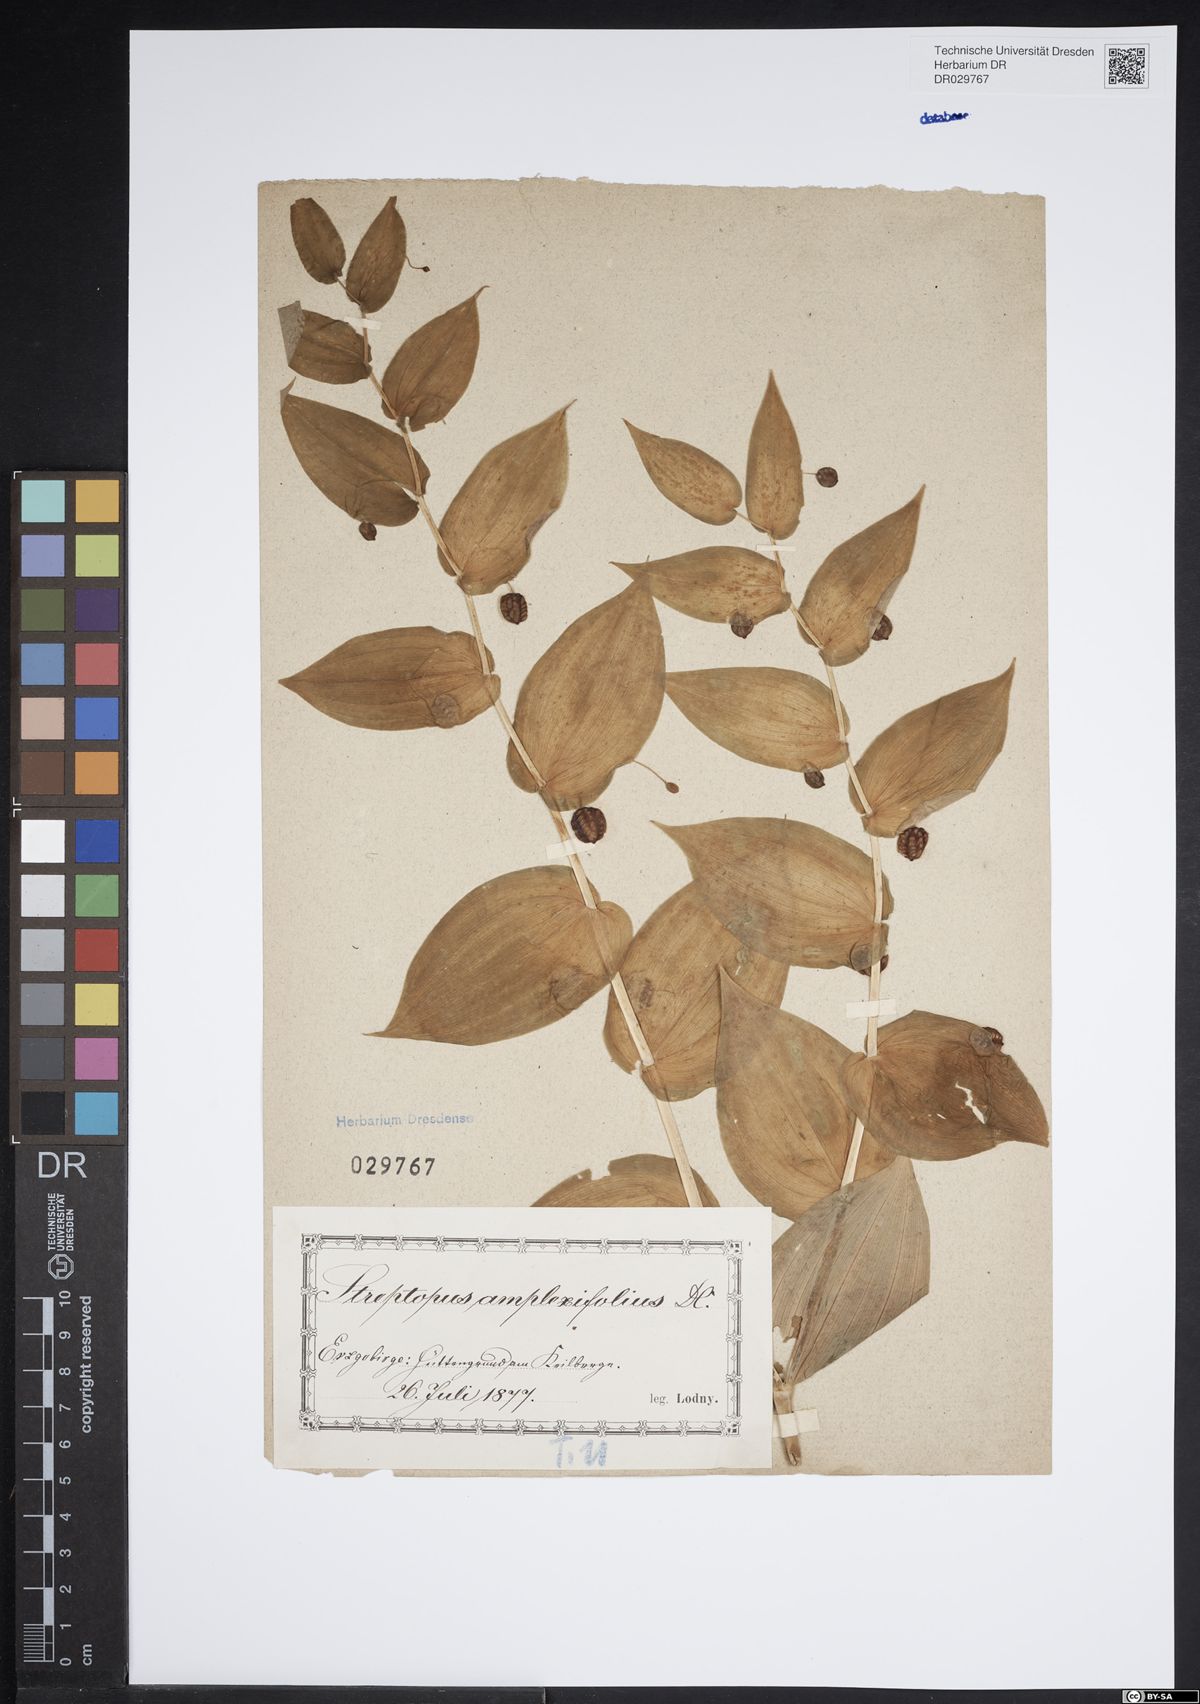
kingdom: Plantae
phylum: Tracheophyta
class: Liliopsida
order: Liliales
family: Liliaceae
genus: Streptopus
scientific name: Streptopus amplexifolius
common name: Clasp twisted stalk
